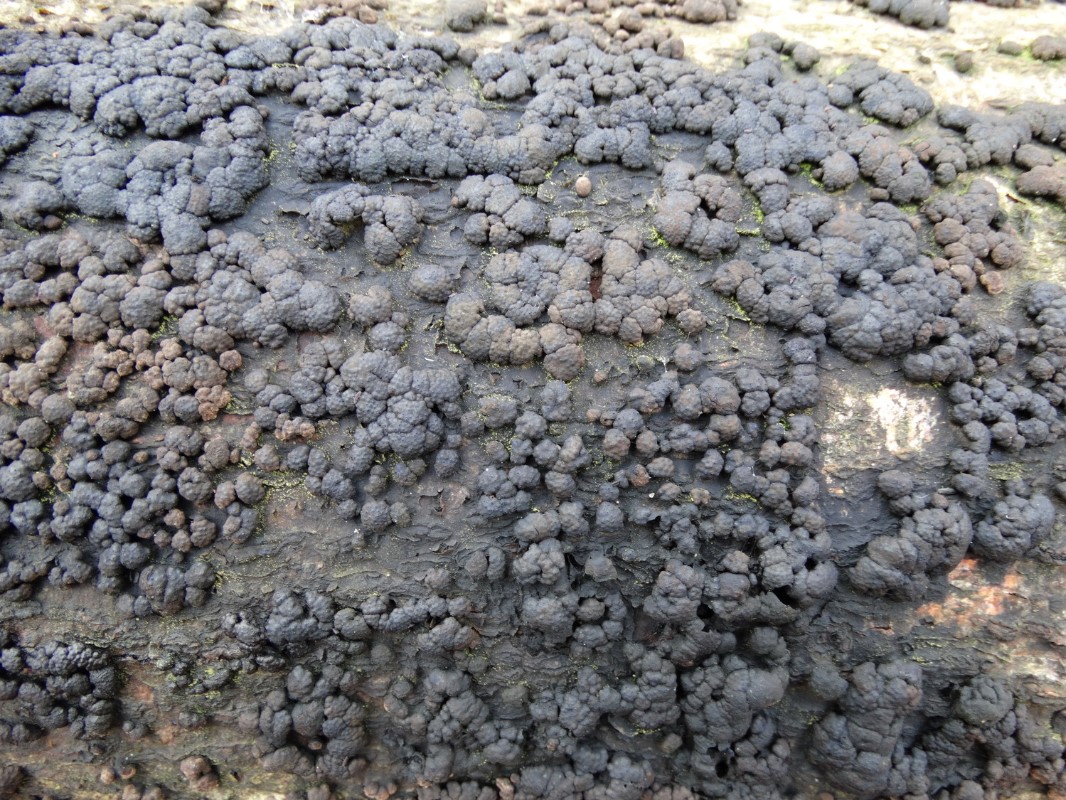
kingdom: Fungi
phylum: Ascomycota
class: Sordariomycetes
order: Xylariales
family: Hypoxylaceae
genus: Jackrogersella
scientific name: Jackrogersella cohaerens
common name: sammenflydende kulbær
